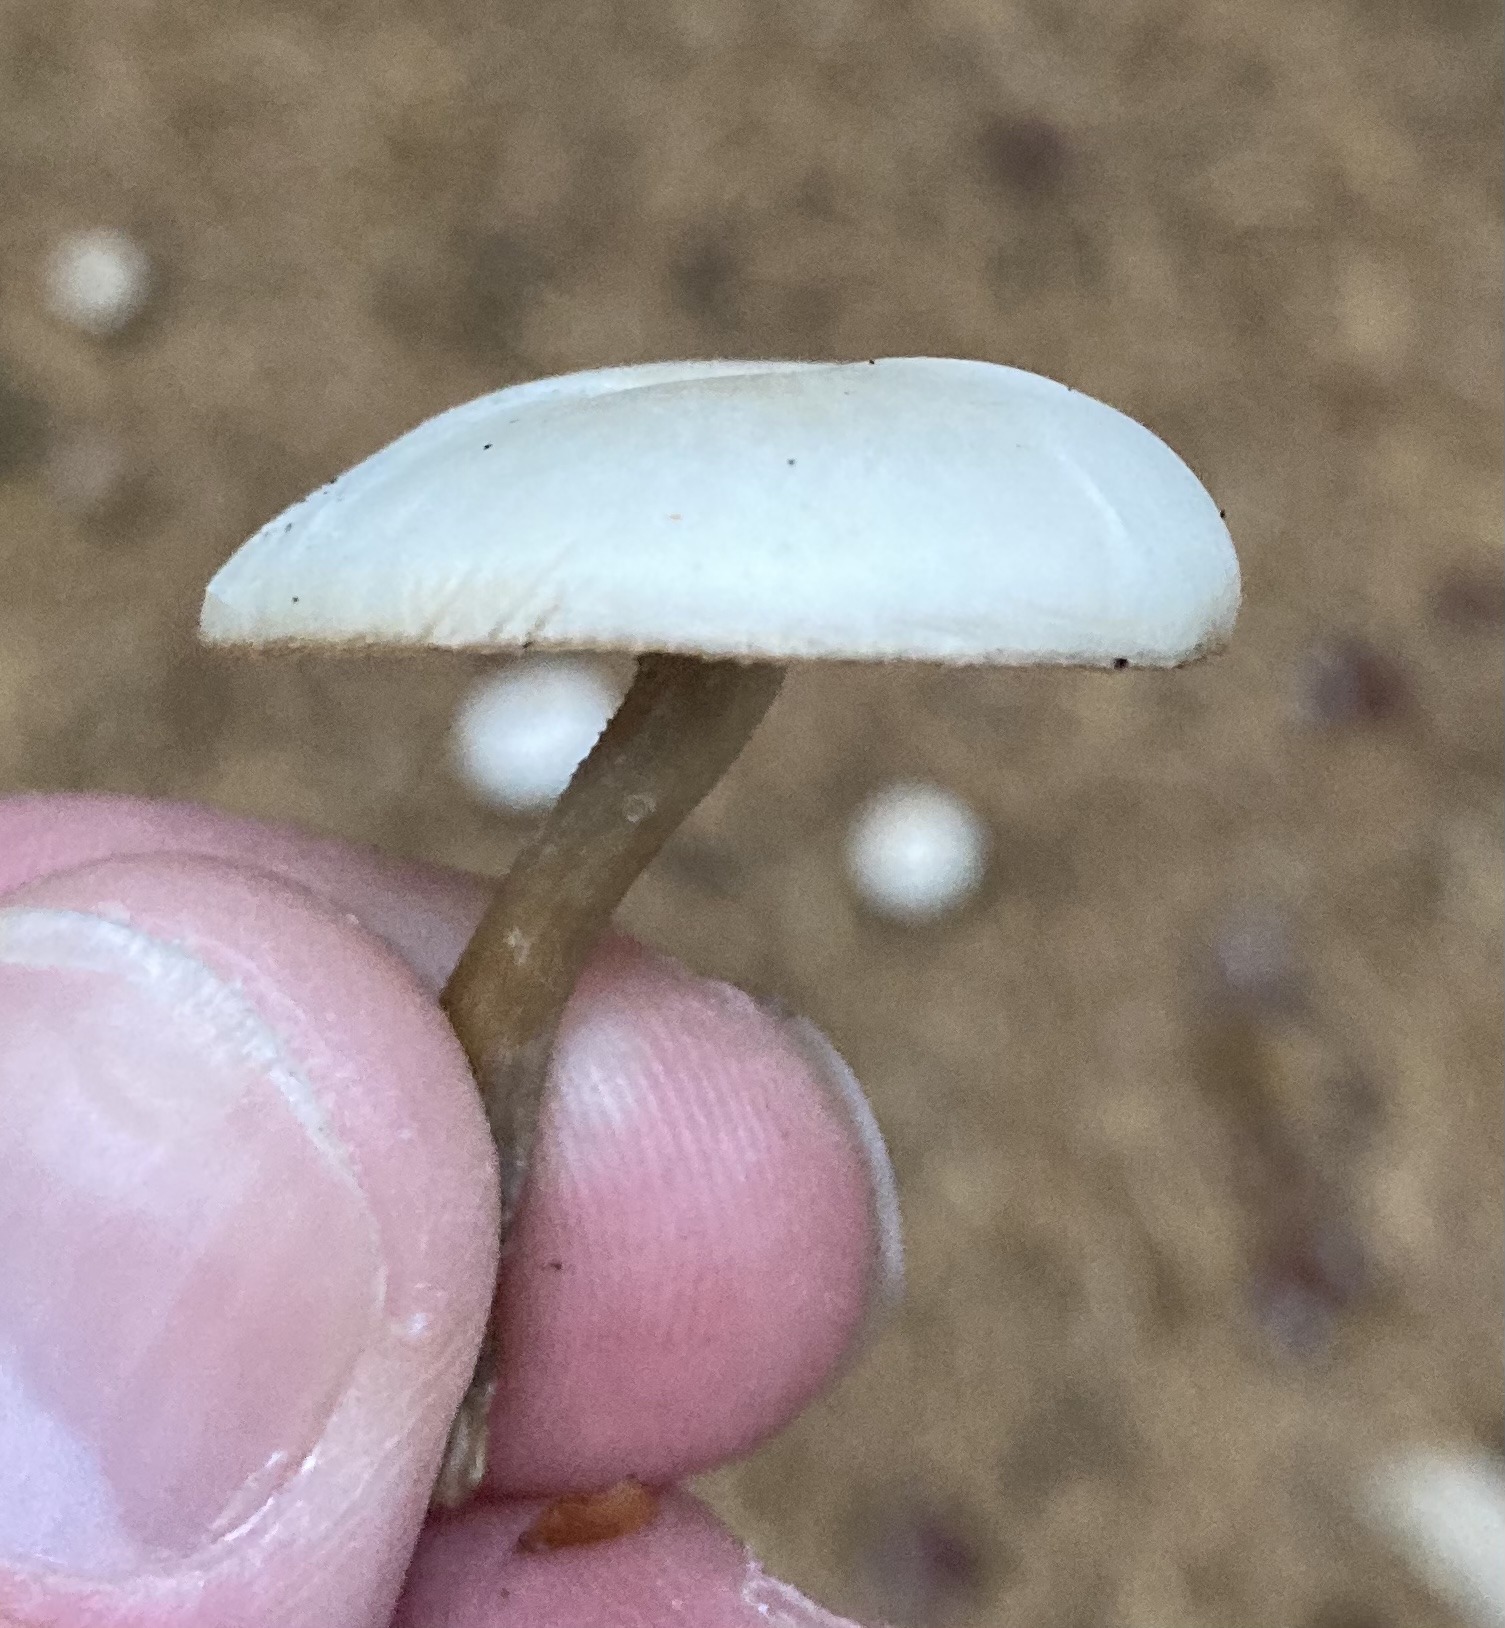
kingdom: Fungi
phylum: Basidiomycota
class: Agaricomycetes
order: Agaricales
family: Tricholomataceae
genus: Clitocybe
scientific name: Clitocybe metachroa
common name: grå tragthat
